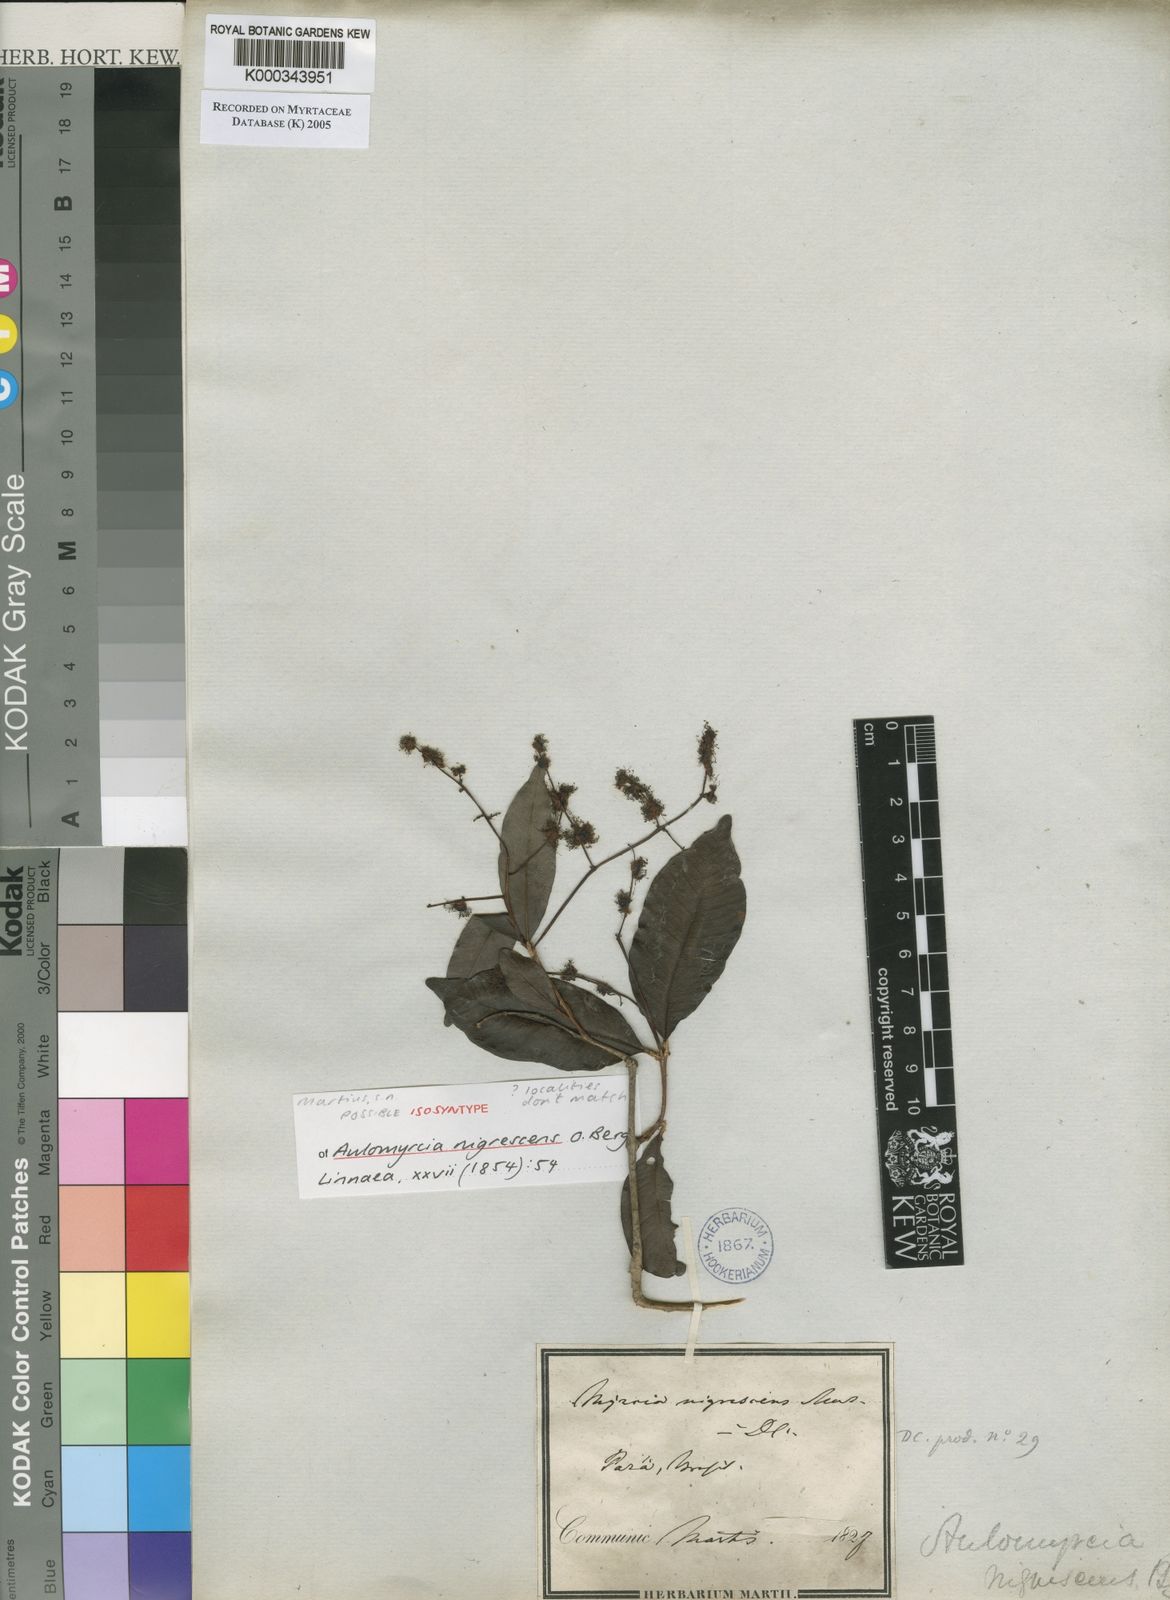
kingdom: Plantae
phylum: Tracheophyta
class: Magnoliopsida
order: Myrtales
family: Myrtaceae
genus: Myrcia
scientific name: Myrcia umbraticola
